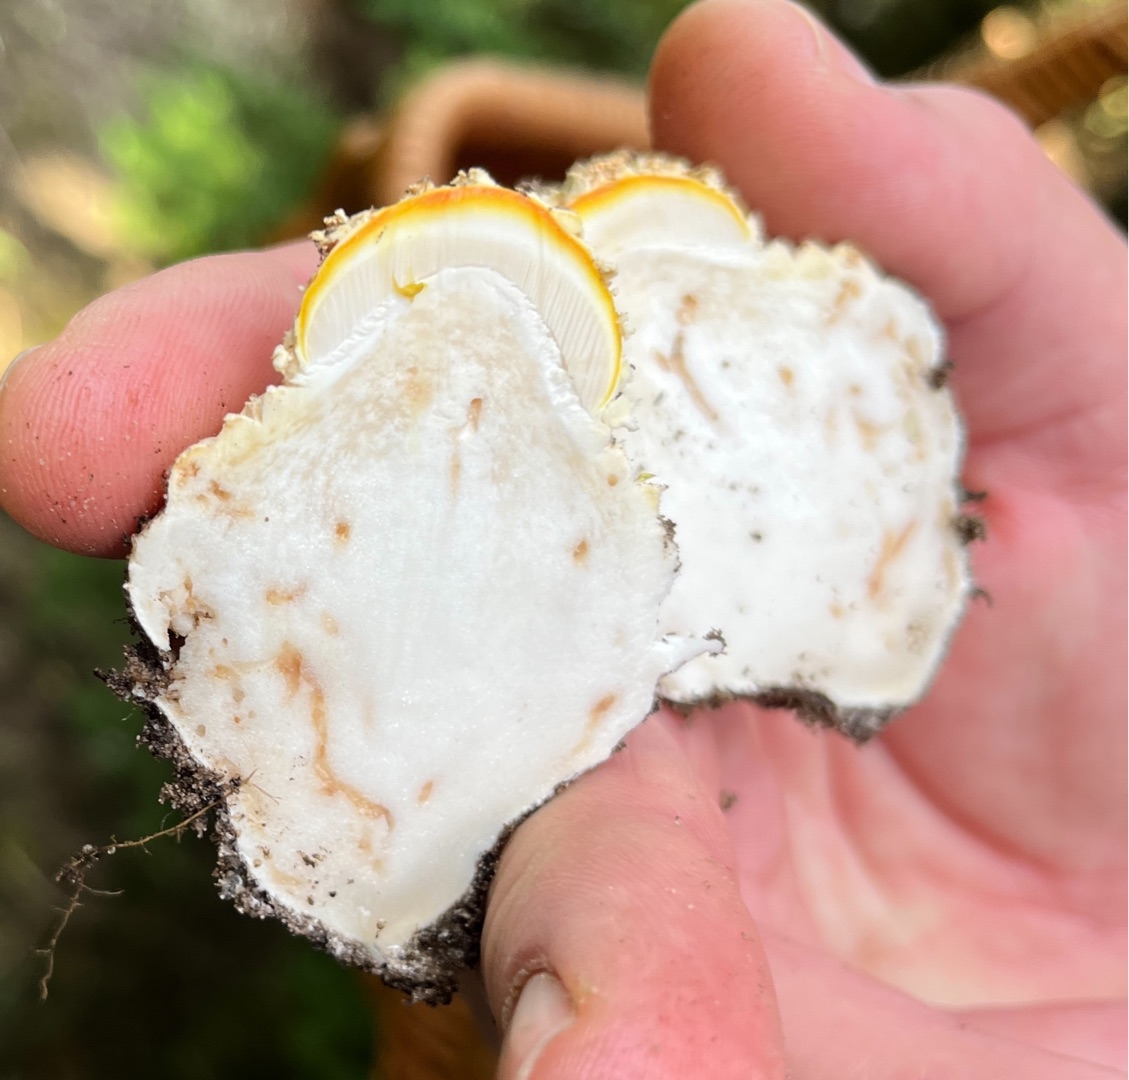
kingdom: Fungi
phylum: Basidiomycota
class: Agaricomycetes
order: Agaricales
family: Amanitaceae
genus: Amanita
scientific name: Amanita muscaria
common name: Rød fluesvamp
